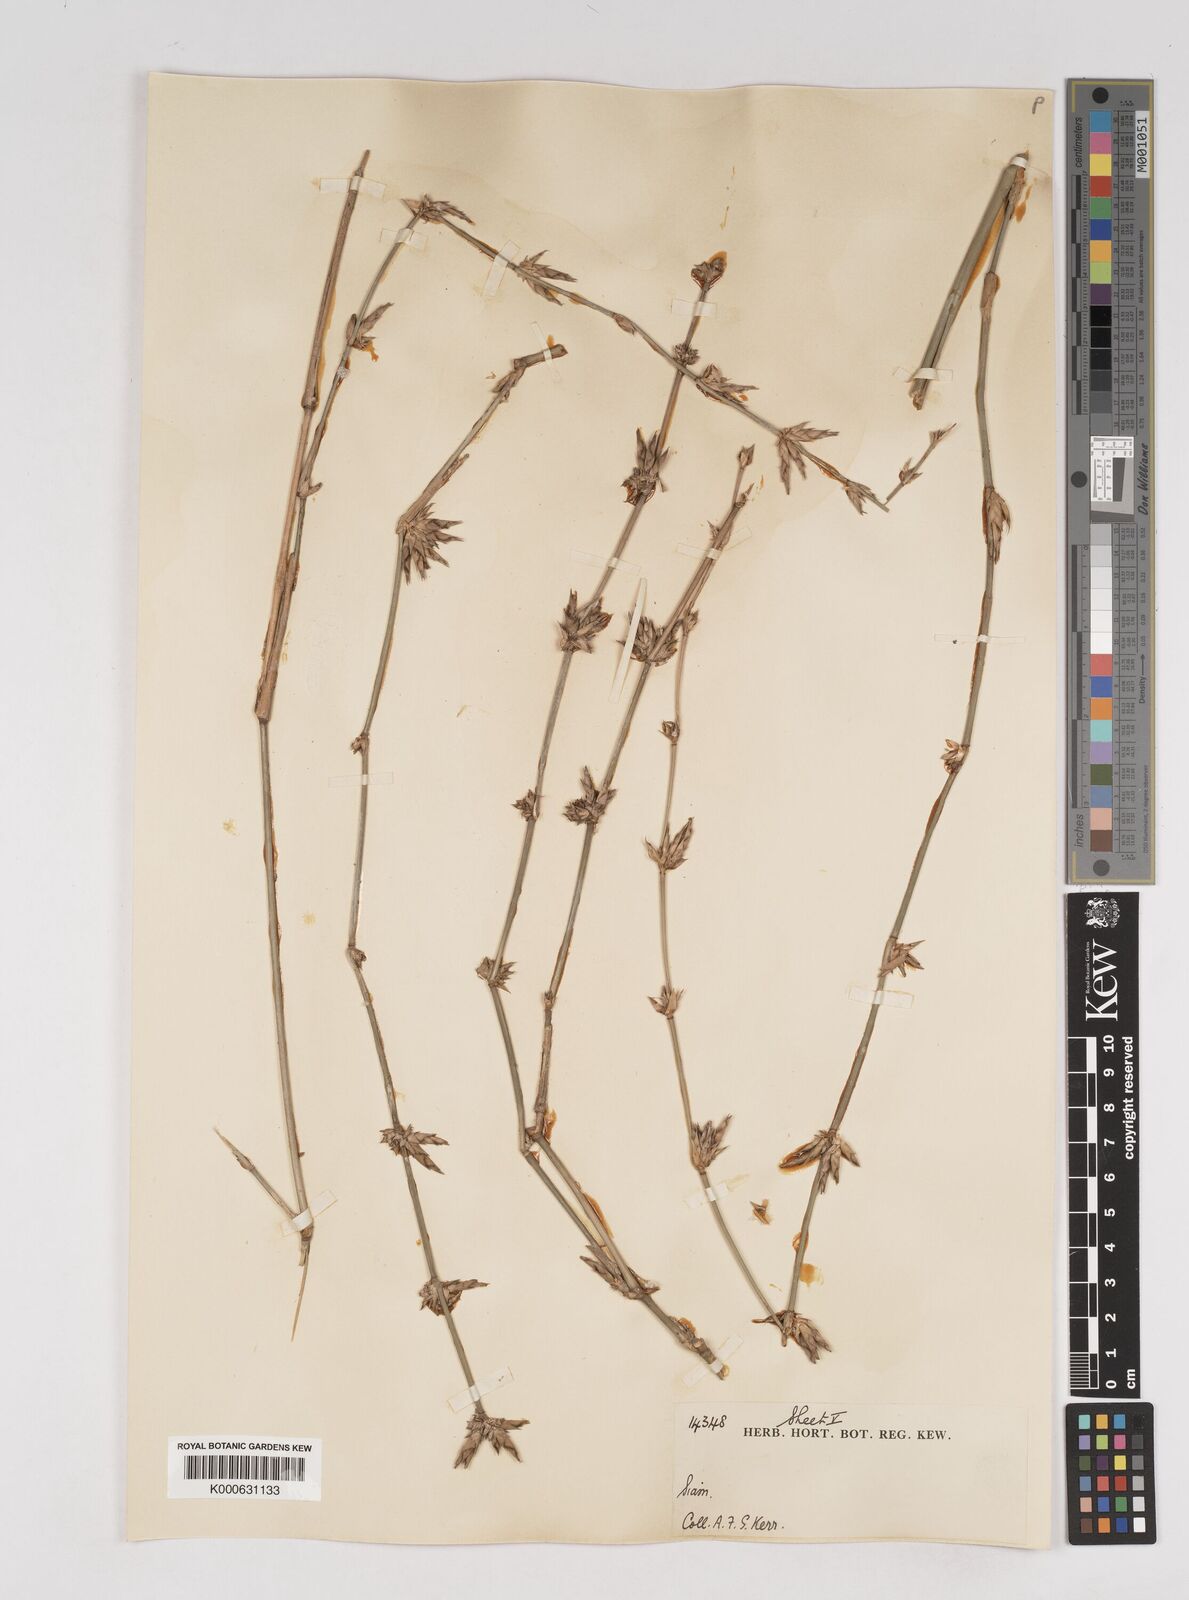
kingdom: Plantae
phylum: Tracheophyta
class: Liliopsida
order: Poales
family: Poaceae
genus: Gigantochloa
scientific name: Gigantochloa
